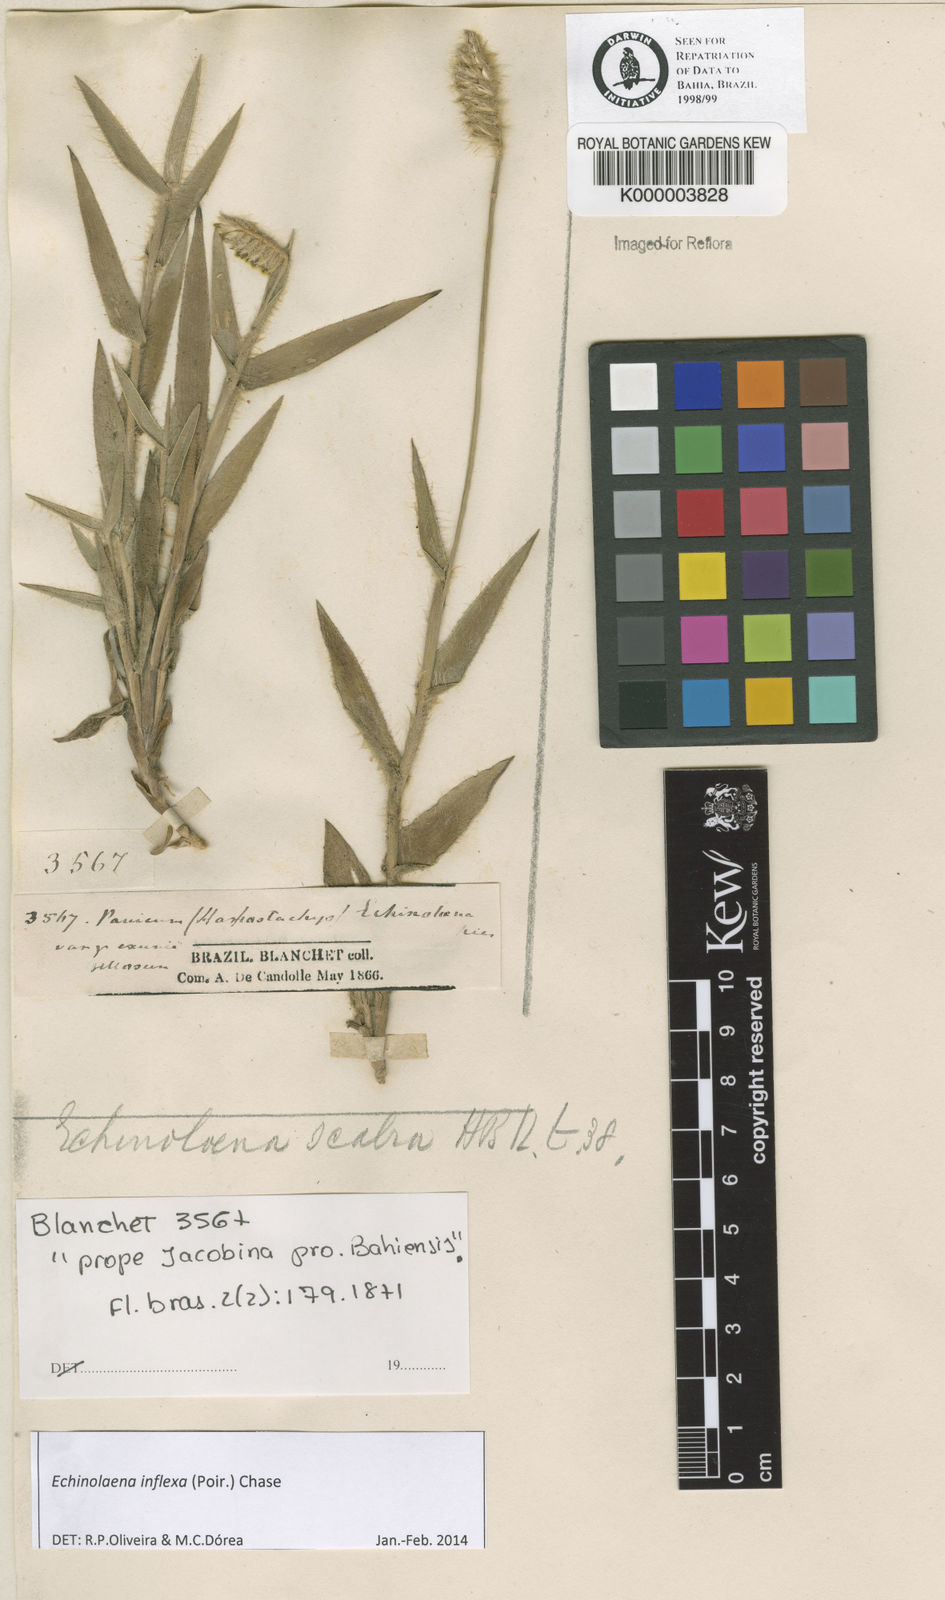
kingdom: Plantae
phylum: Tracheophyta
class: Liliopsida
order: Poales
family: Poaceae
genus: Echinolaena
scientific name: Echinolaena inflexa
